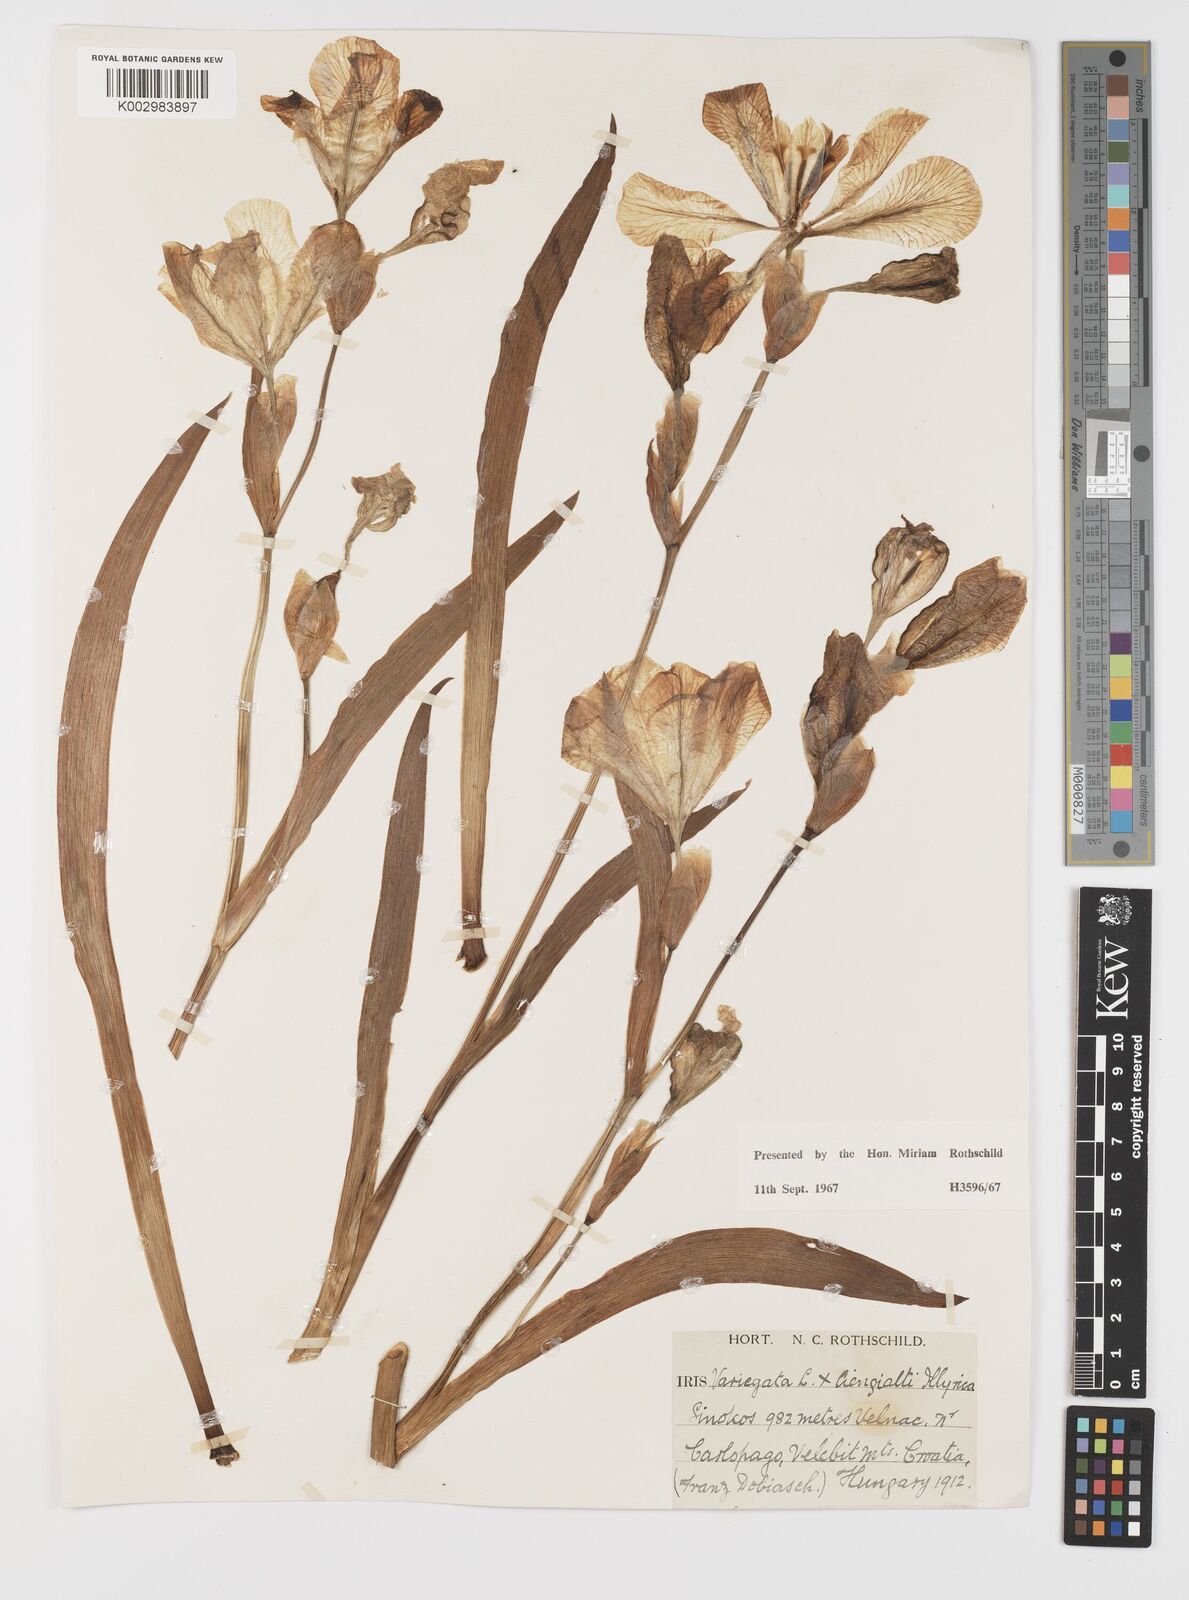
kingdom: Plantae
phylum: Tracheophyta
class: Liliopsida
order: Asparagales
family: Iridaceae
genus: Iris
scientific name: Iris germanica
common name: German iris
